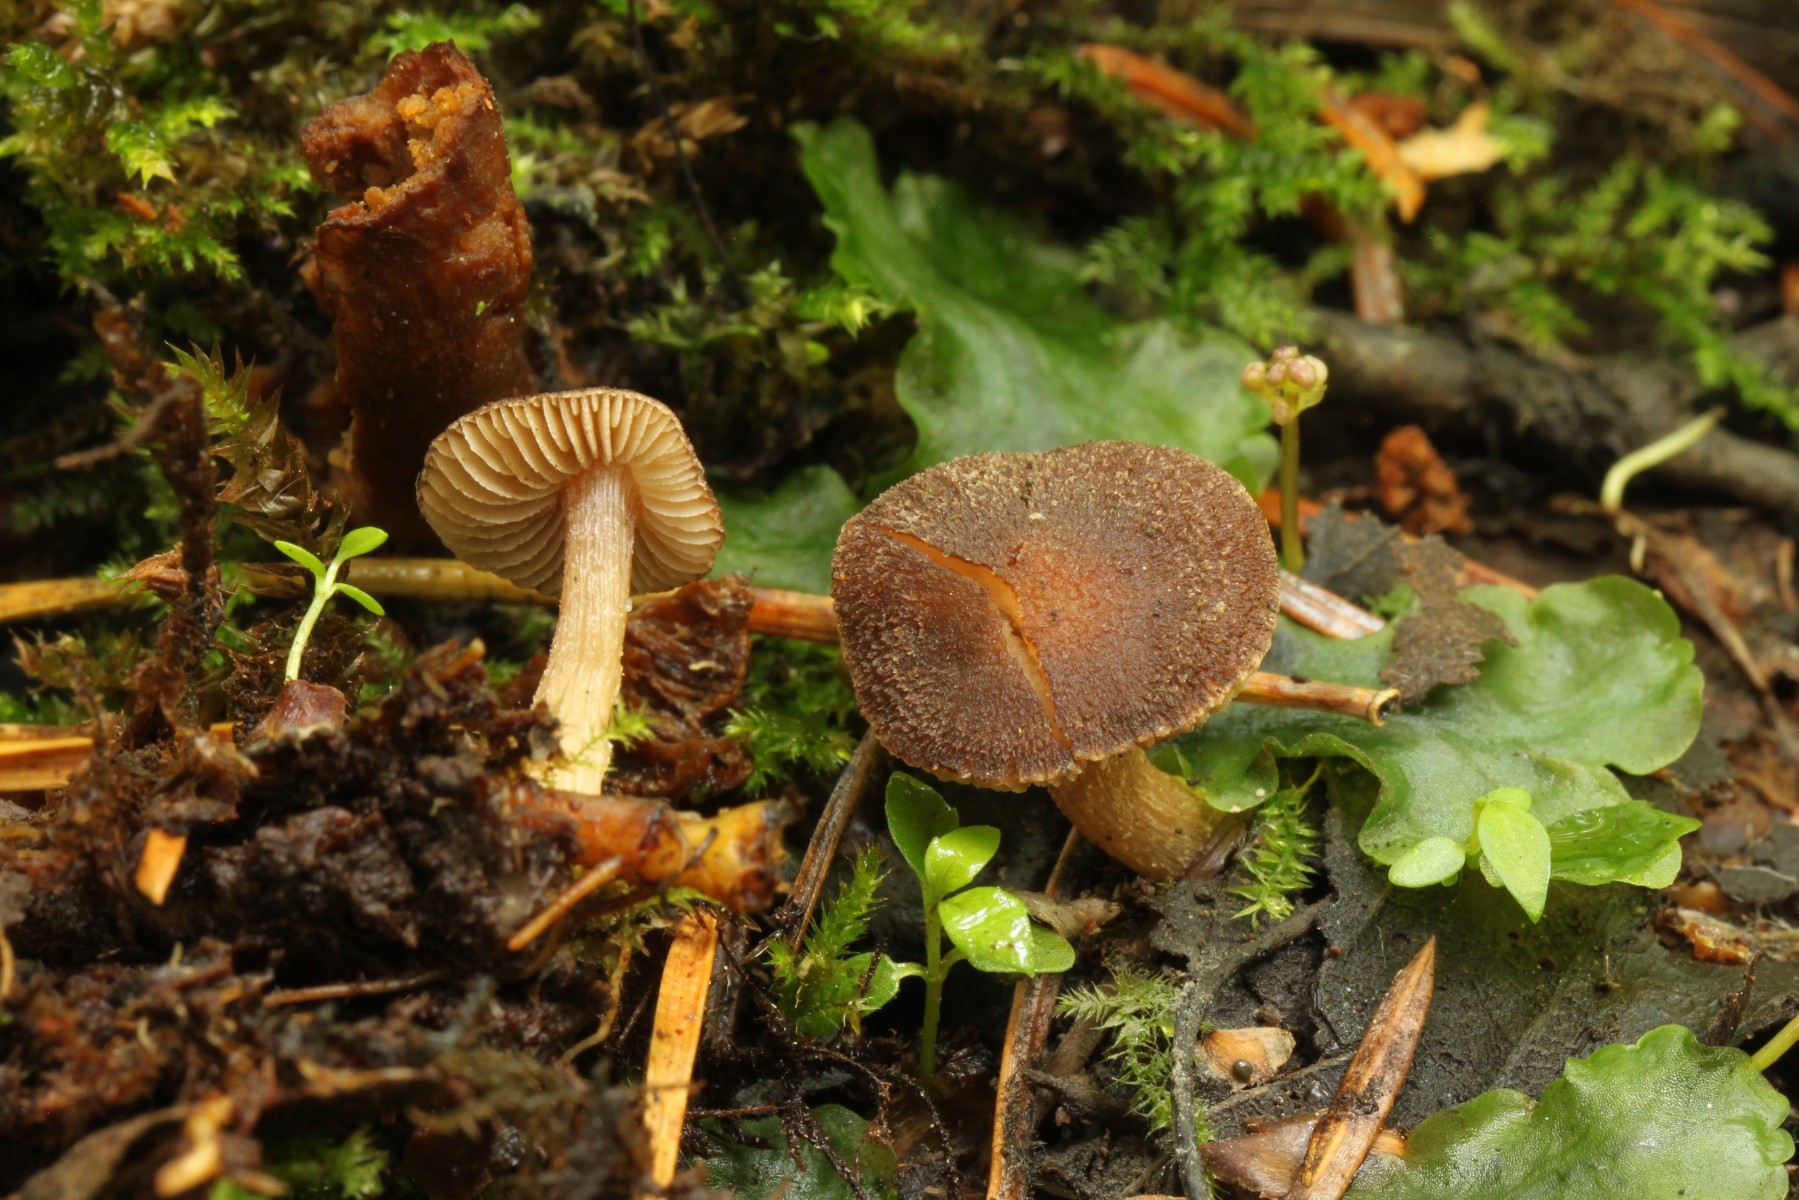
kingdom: Fungi
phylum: Basidiomycota
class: Agaricomycetes
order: Agaricales
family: Inocybaceae
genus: Inocybe
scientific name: Inocybe botaurina
